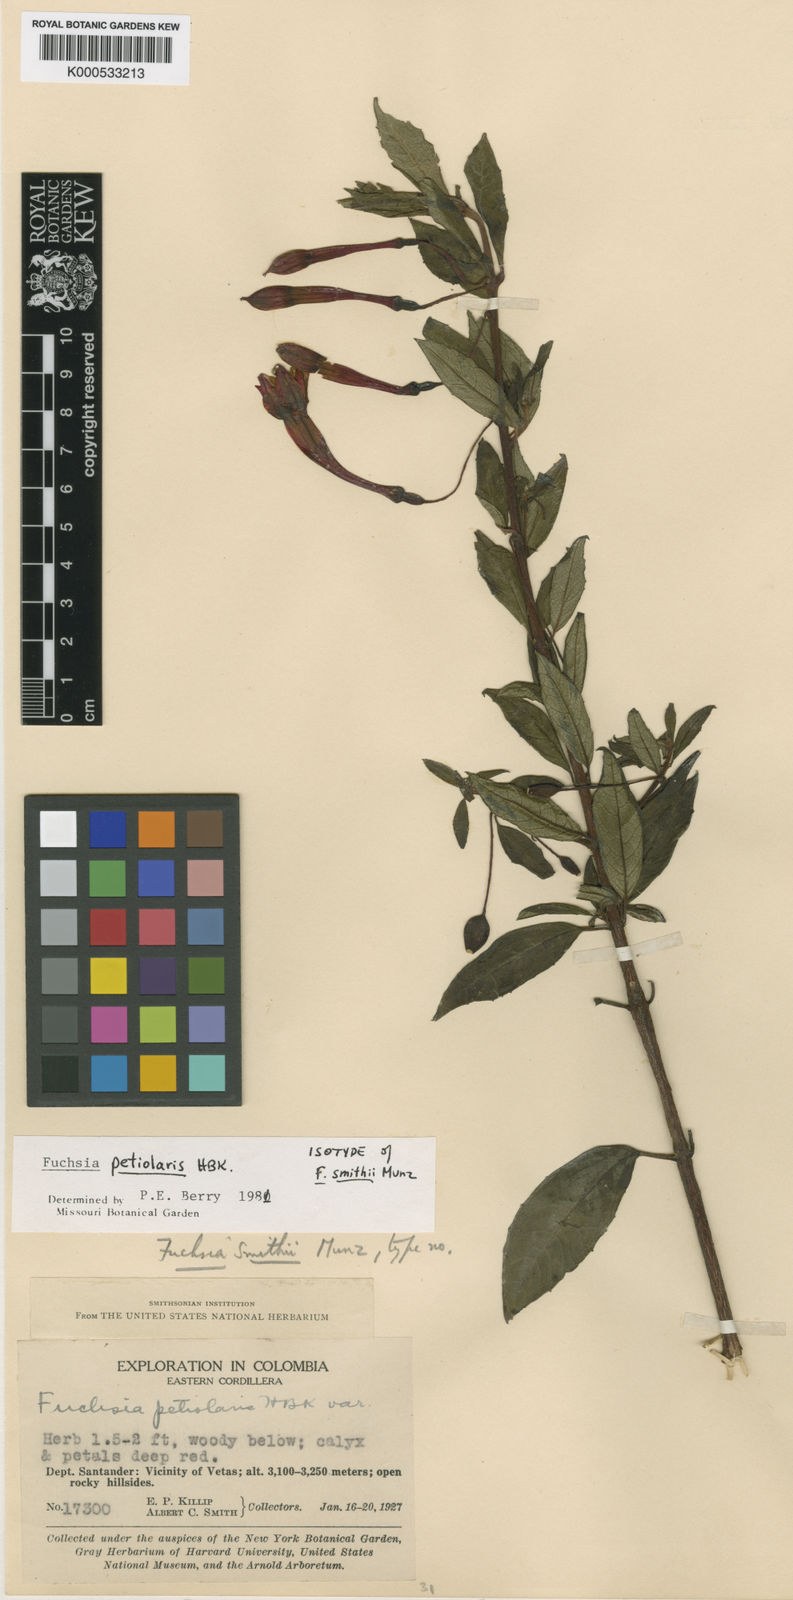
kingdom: Plantae
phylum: Tracheophyta
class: Magnoliopsida
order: Myrtales
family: Onagraceae
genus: Fuchsia
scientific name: Fuchsia petiolaris
